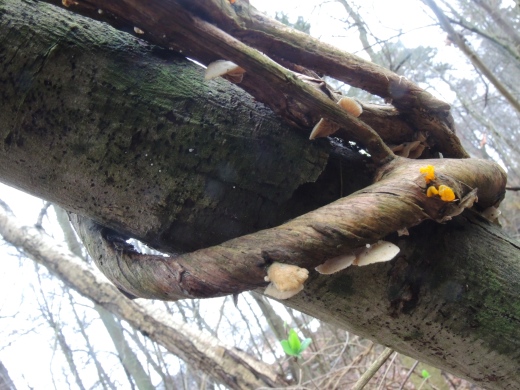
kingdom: Fungi
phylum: Basidiomycota
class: Agaricomycetes
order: Agaricales
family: Crepidotaceae
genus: Crepidotus
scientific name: Crepidotus cesatii
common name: almindelig muslingesvamp
